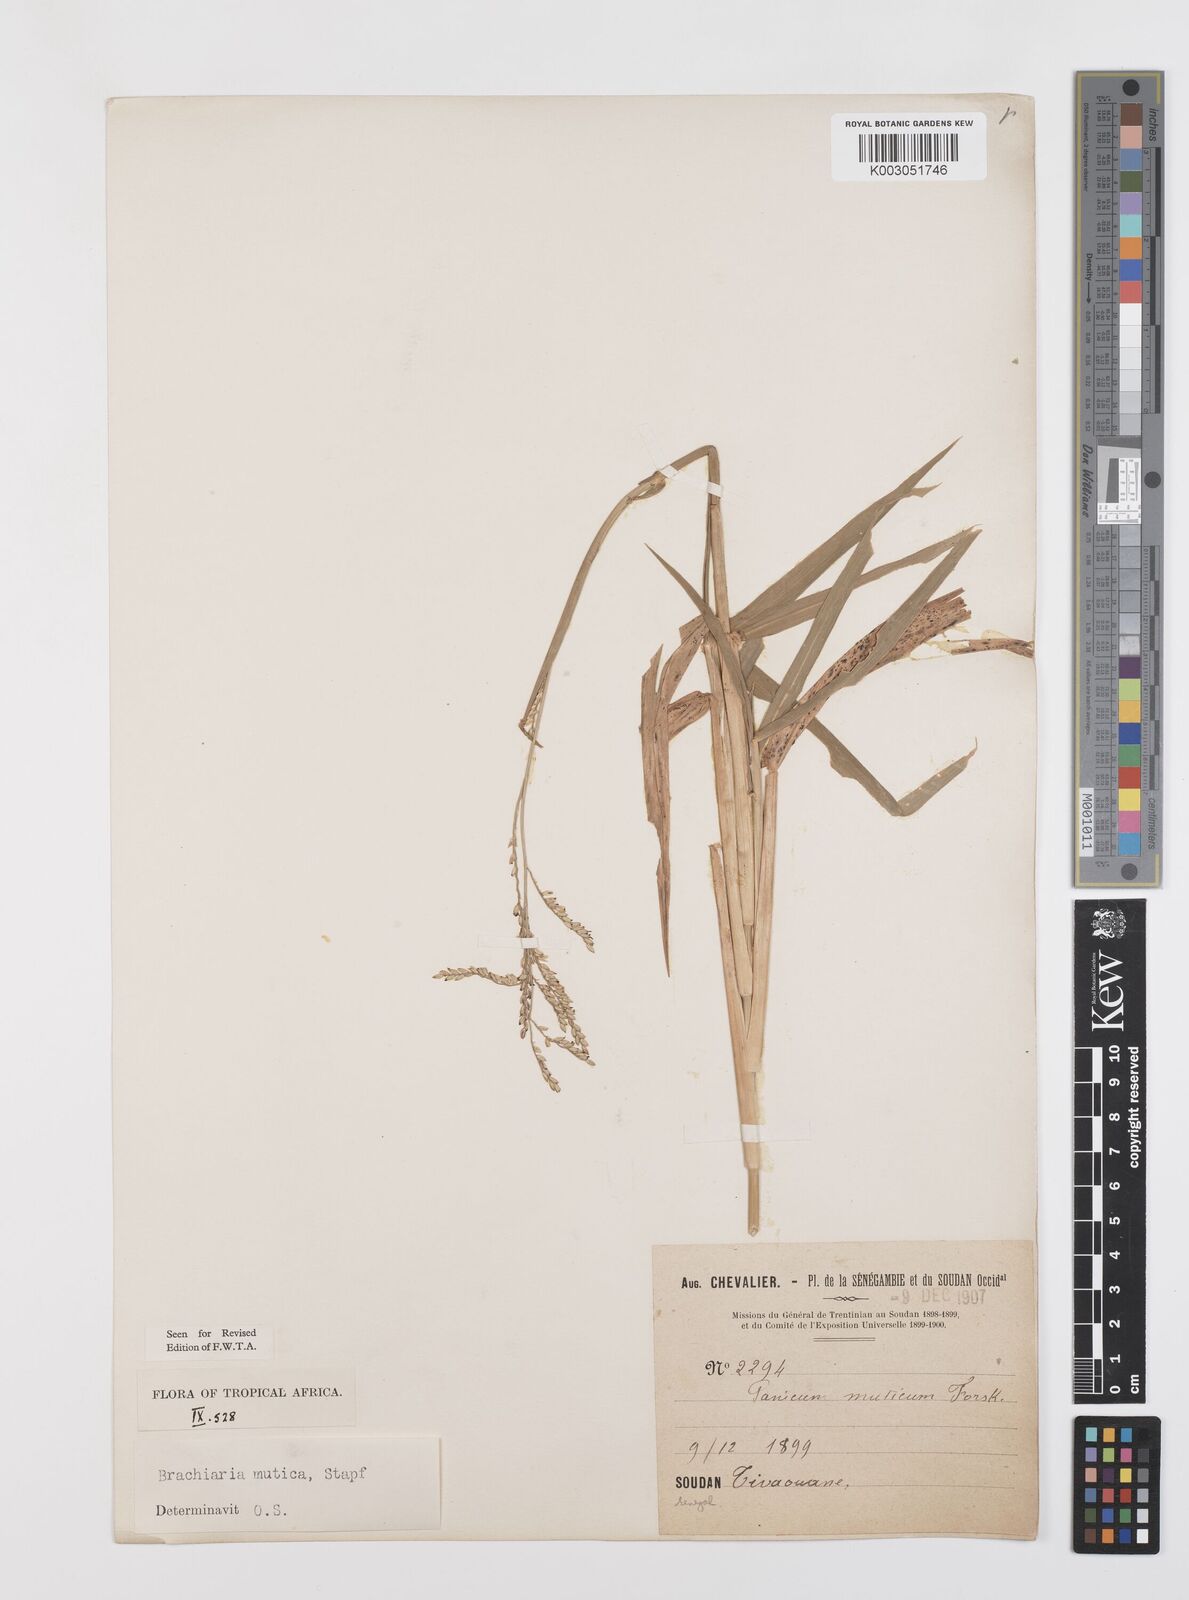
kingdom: Plantae
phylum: Tracheophyta
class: Liliopsida
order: Poales
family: Poaceae
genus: Urochloa
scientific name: Urochloa mutica
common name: Para grass
